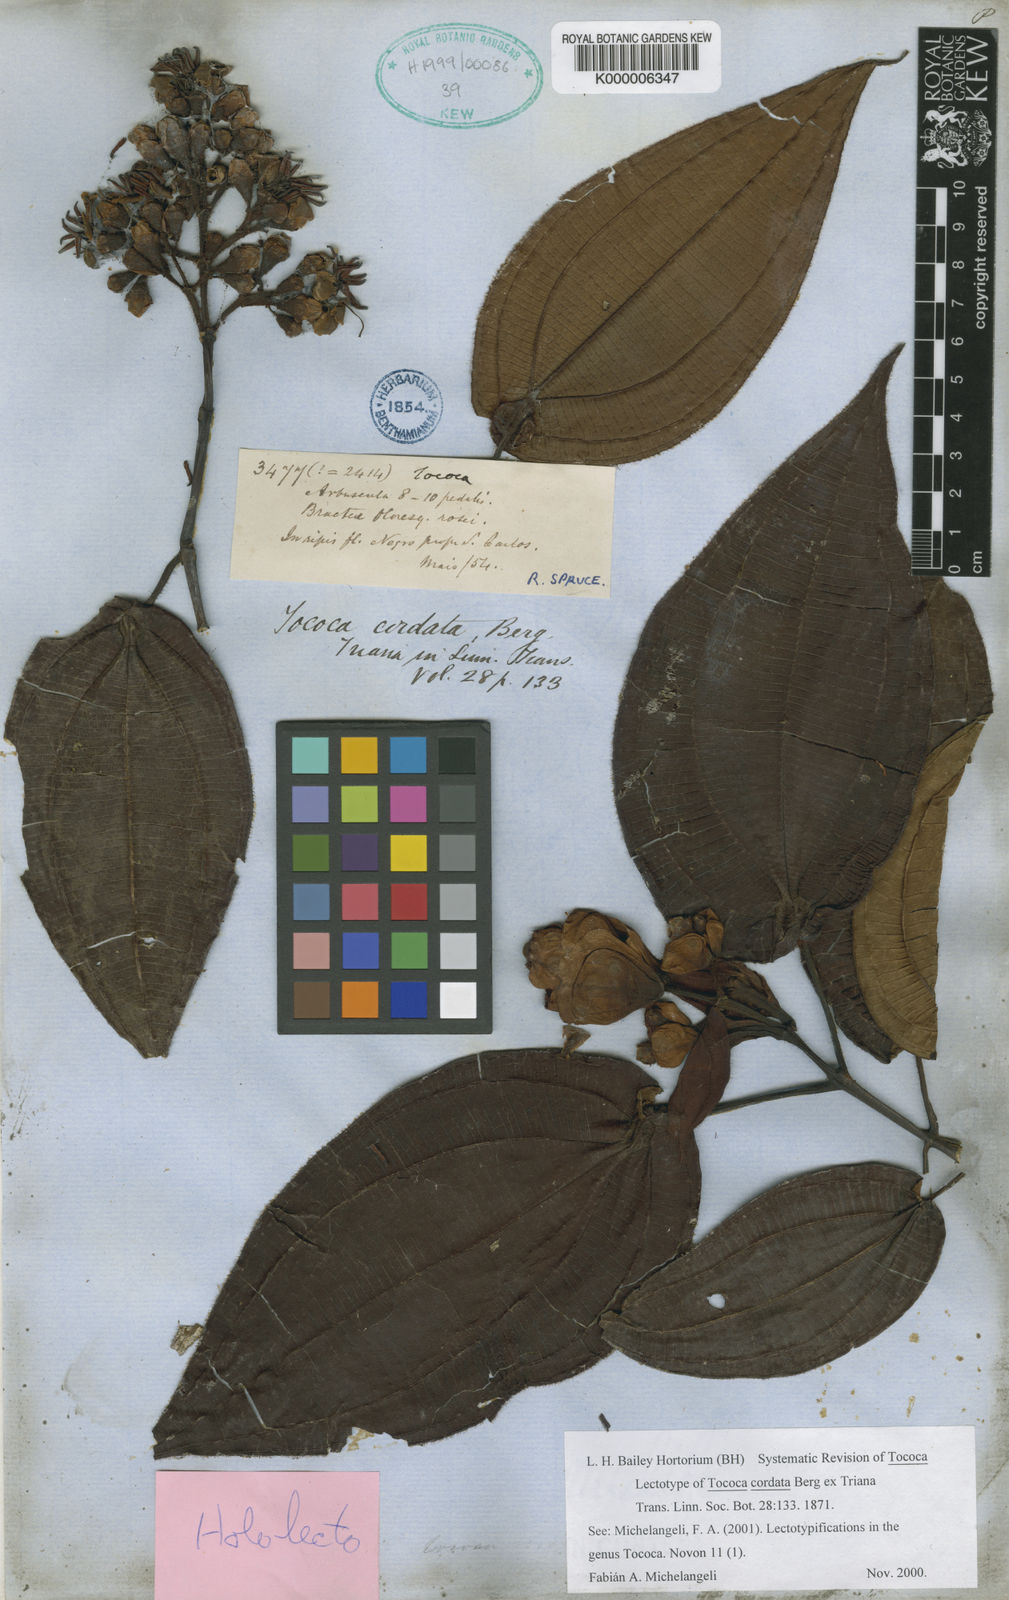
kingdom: Plantae
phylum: Tracheophyta
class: Magnoliopsida
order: Myrtales
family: Melastomataceae
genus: Miconia
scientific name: Miconia tococordata
